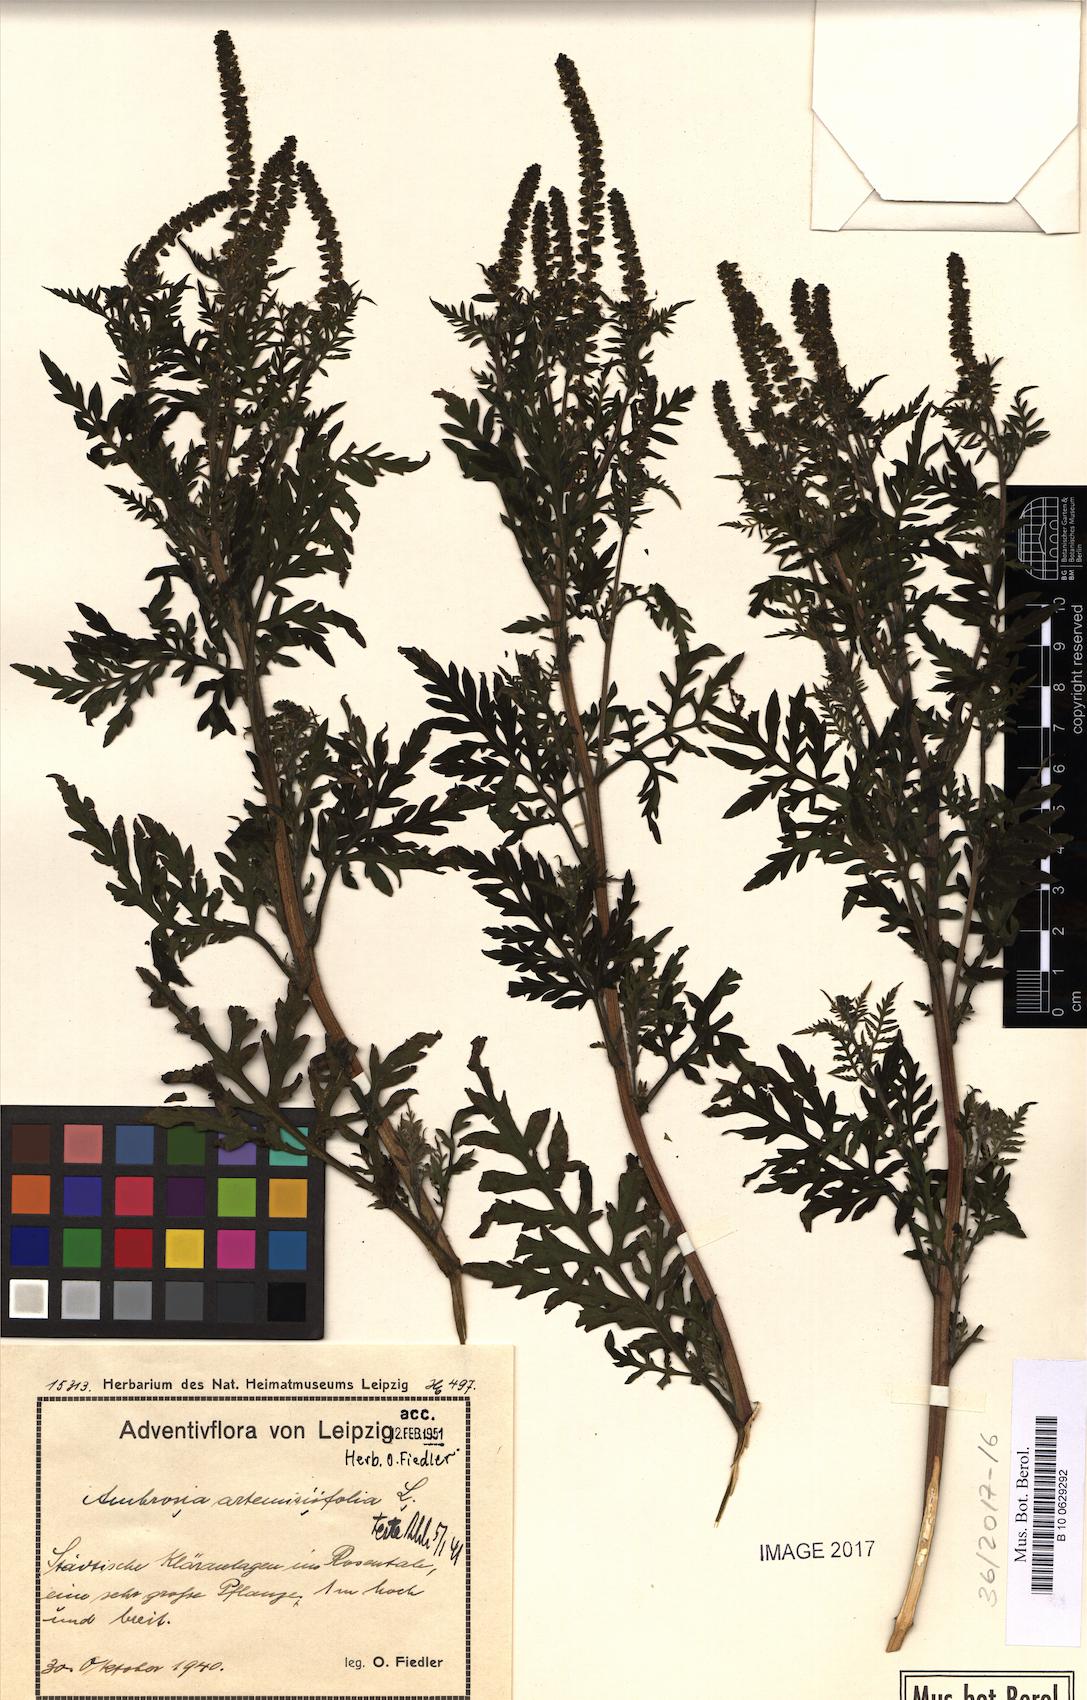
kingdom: Plantae
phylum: Tracheophyta
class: Magnoliopsida
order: Asterales
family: Asteraceae
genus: Ambrosia
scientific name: Ambrosia artemisiifolia
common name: Annual ragweed
